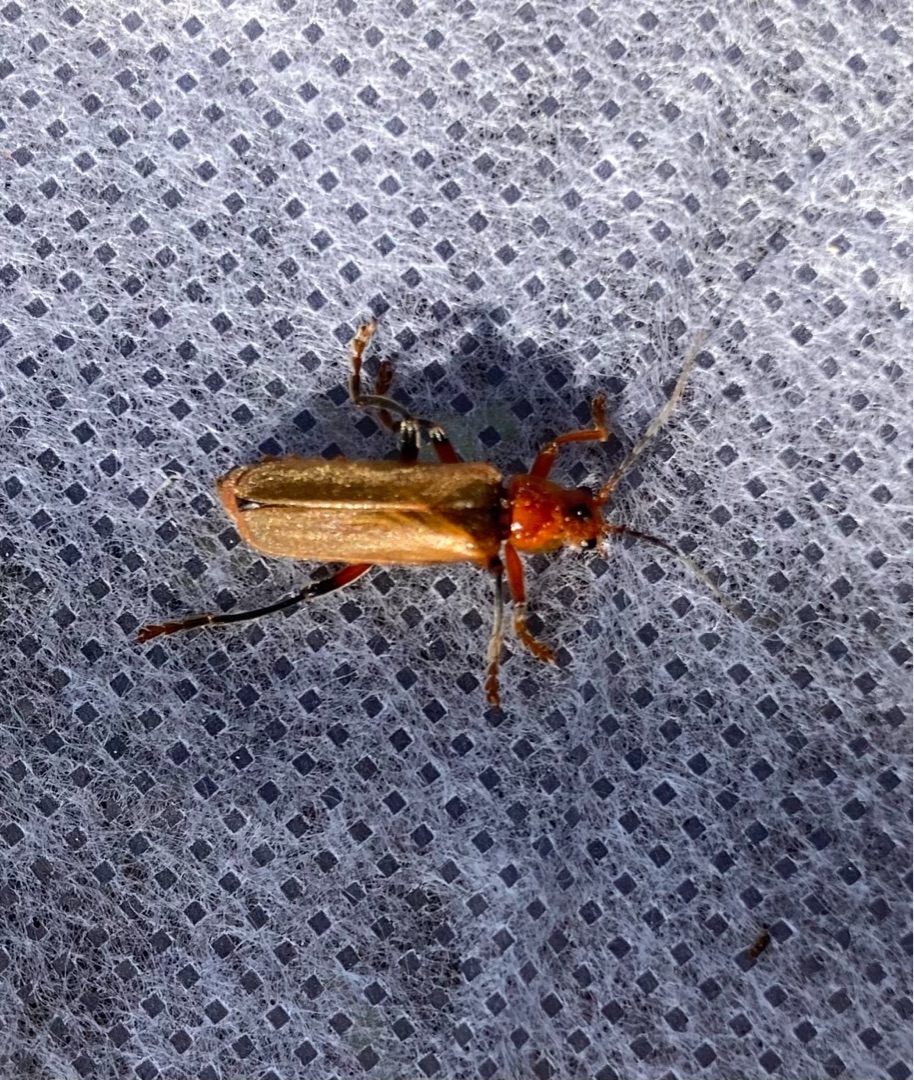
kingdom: Animalia
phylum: Arthropoda
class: Insecta
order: Coleoptera
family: Cantharidae
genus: Cantharis
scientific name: Cantharis livida
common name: Gul blødvinge
